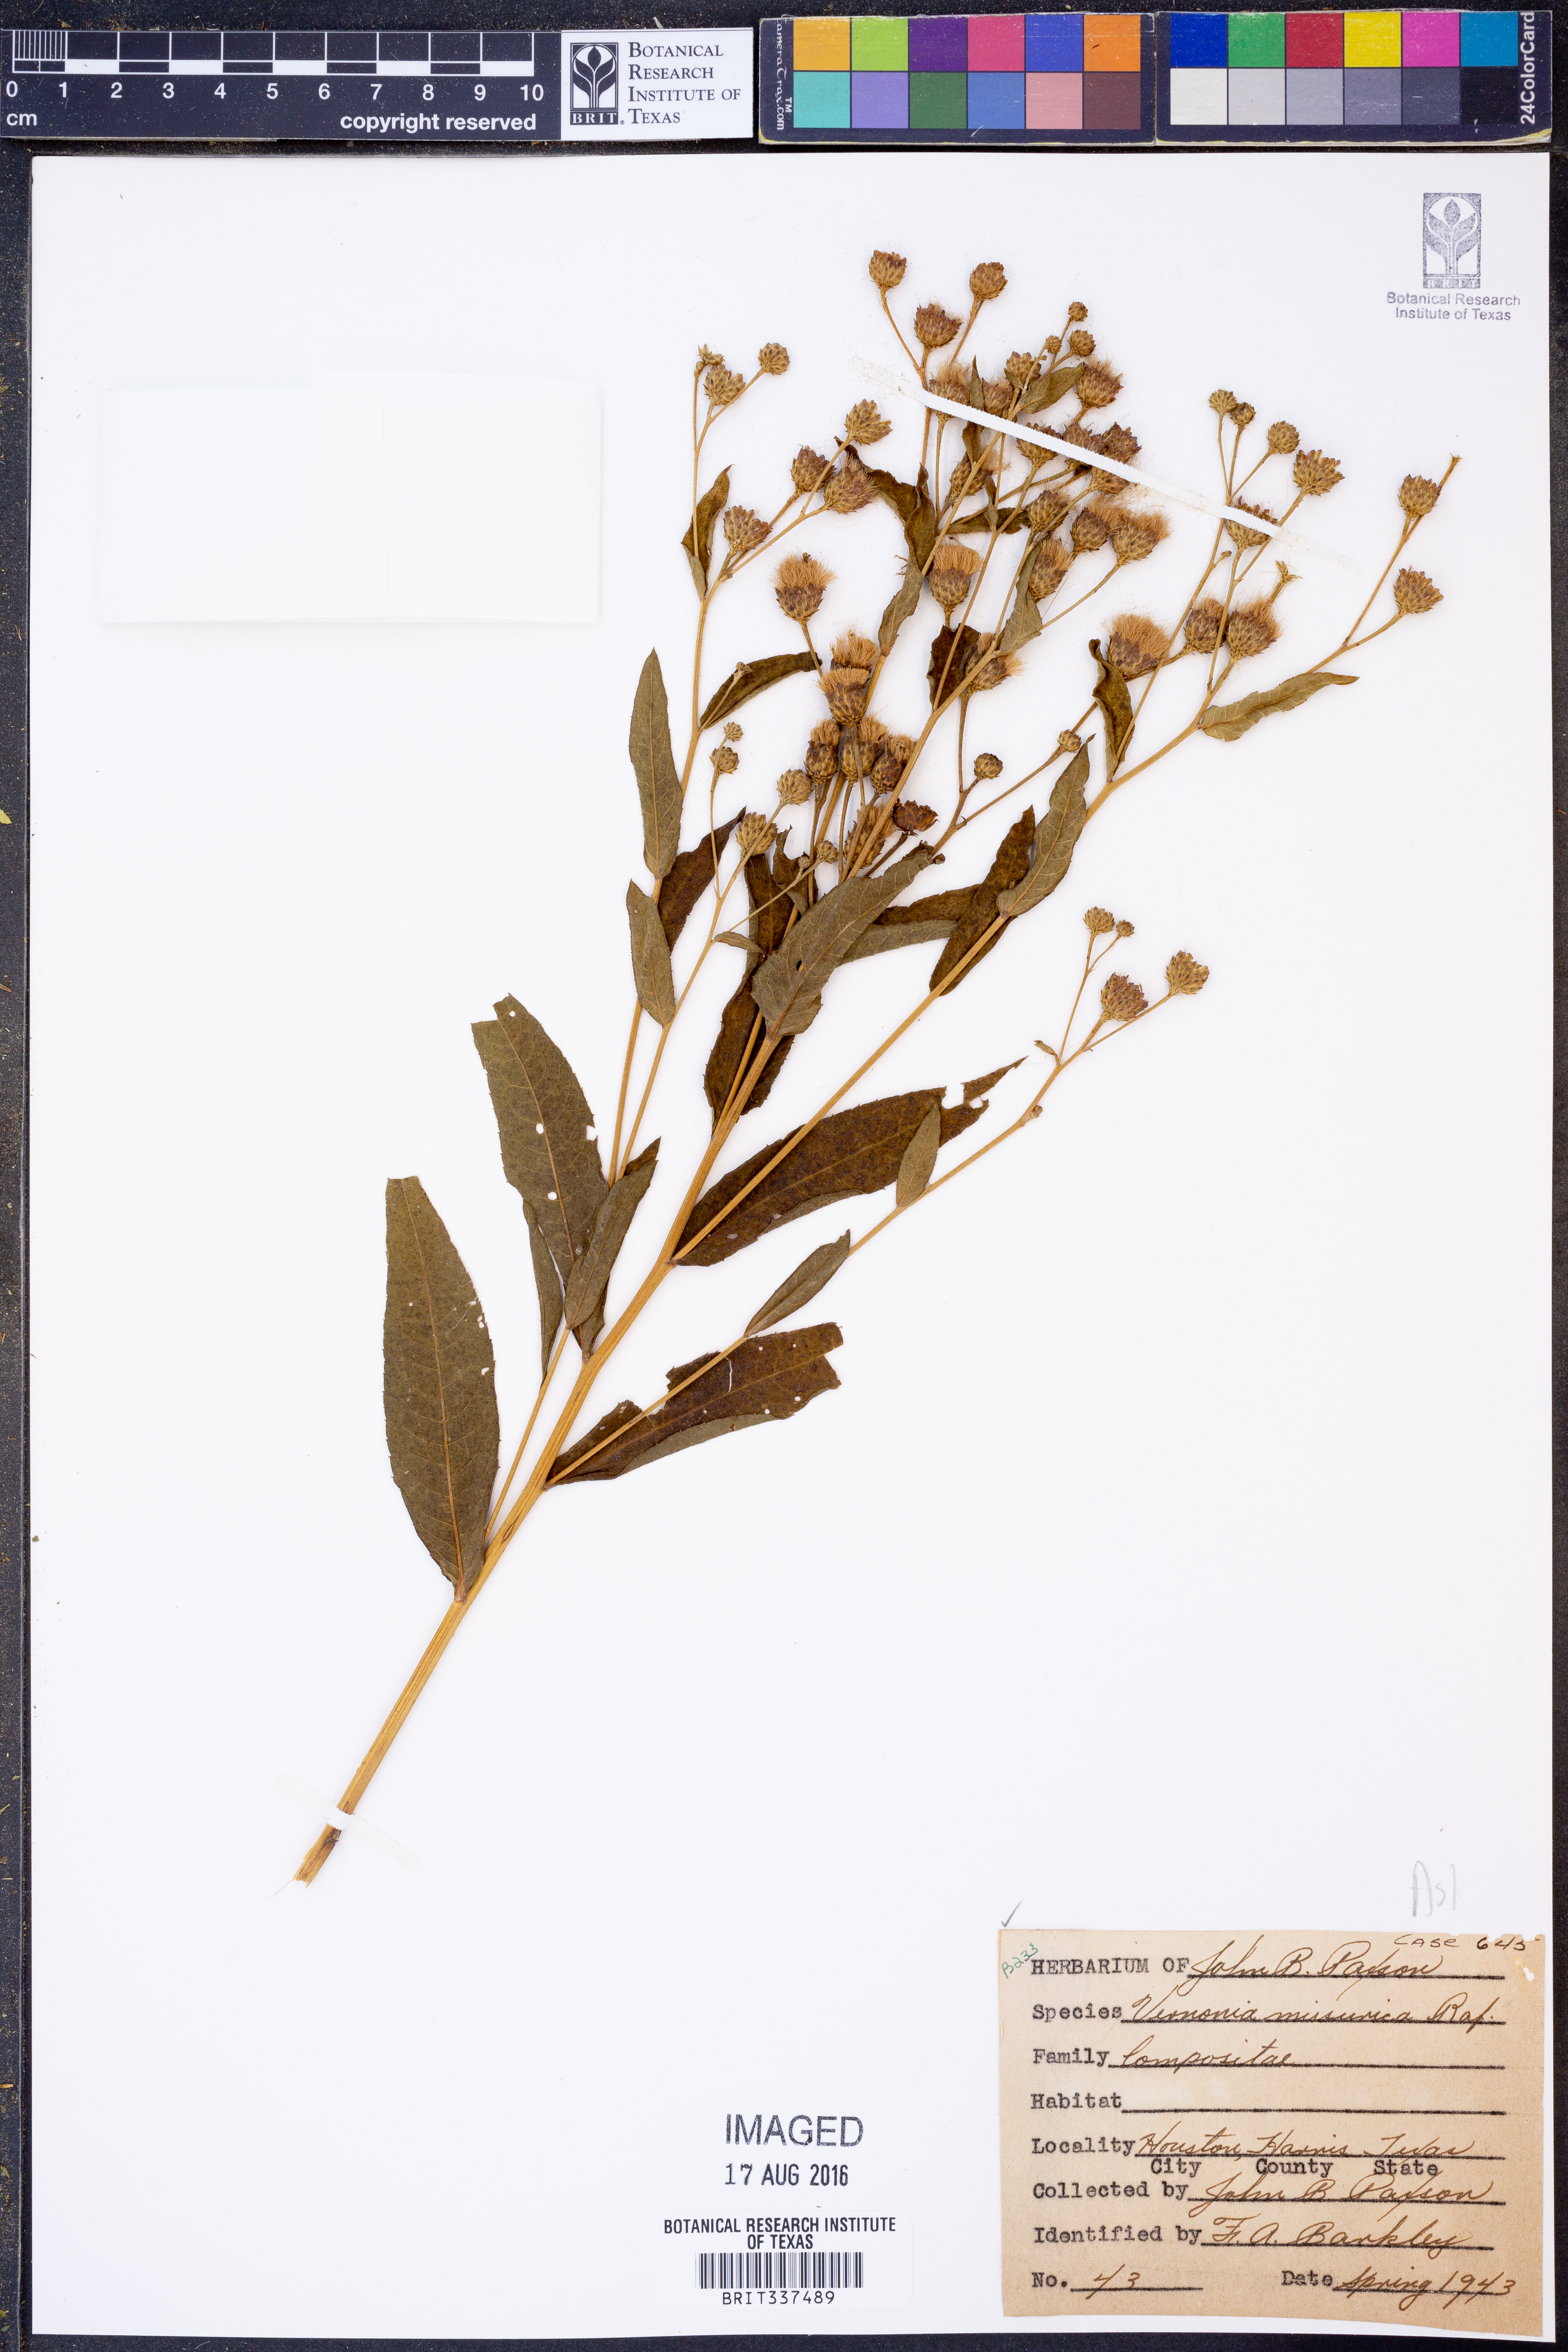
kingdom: Plantae
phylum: Tracheophyta
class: Magnoliopsida
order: Asterales
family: Asteraceae
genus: Vernonia
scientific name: Vernonia missurica
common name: Missouri ironweed
